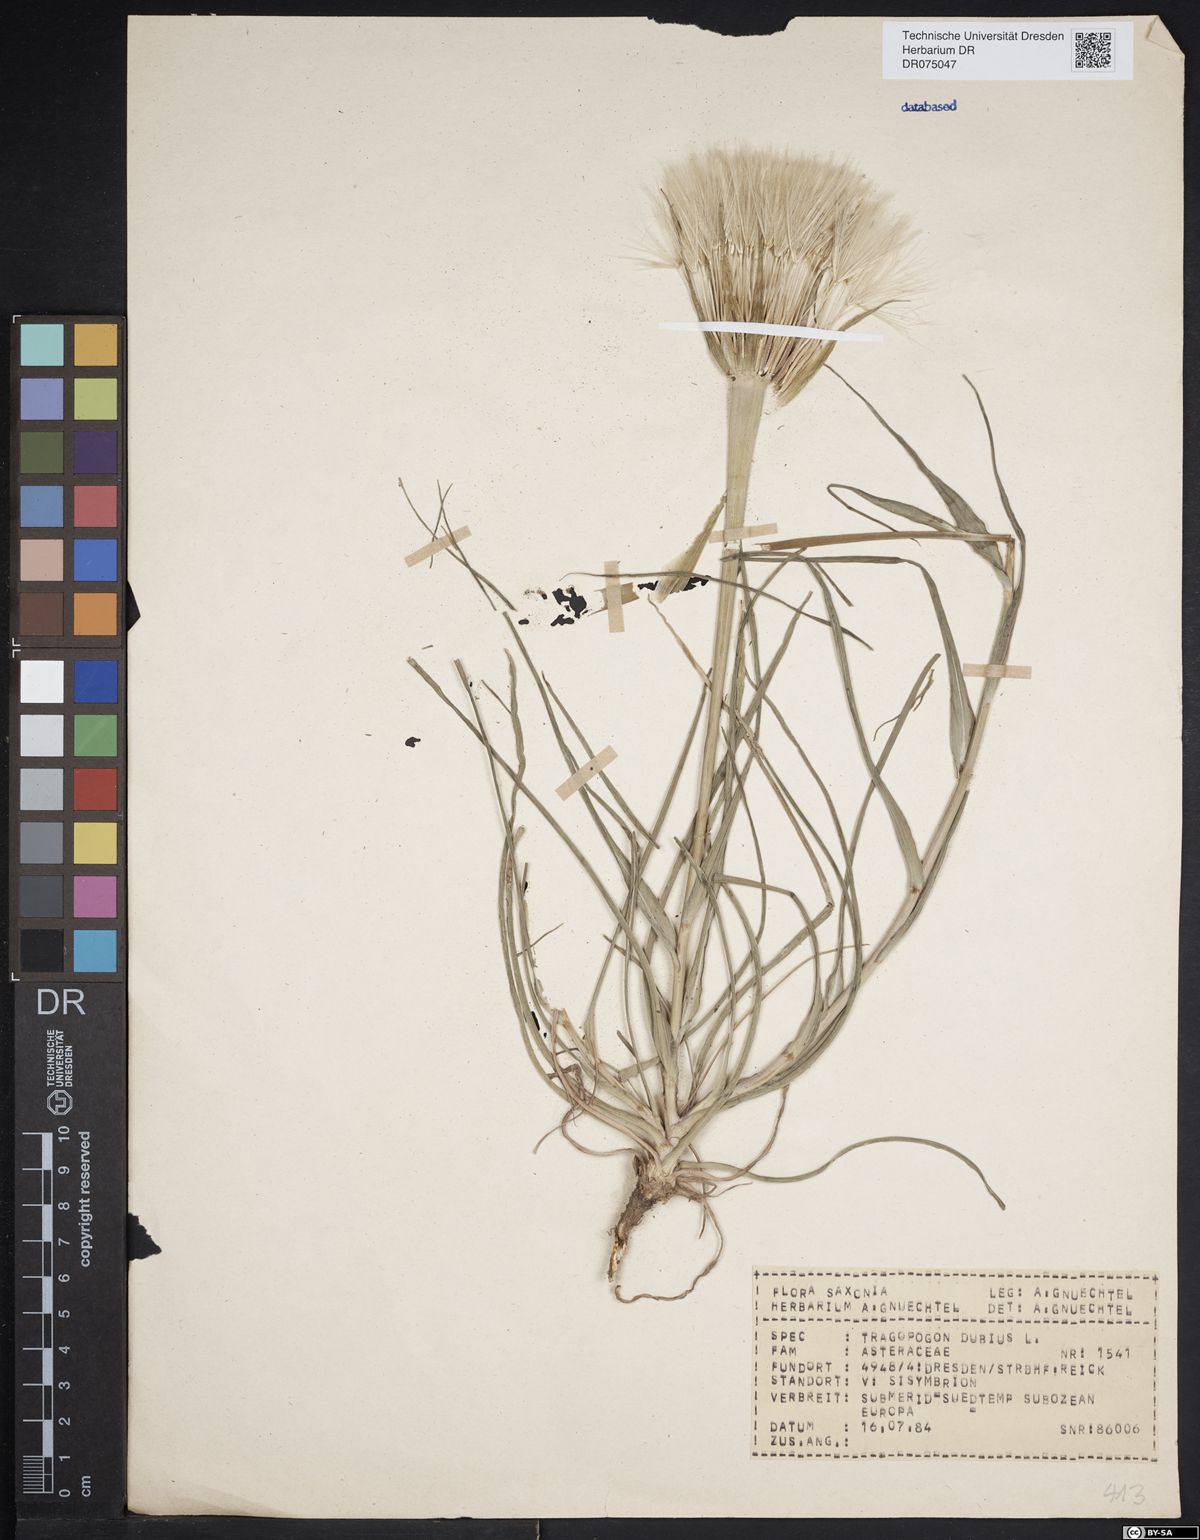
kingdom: Plantae
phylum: Tracheophyta
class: Magnoliopsida
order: Asterales
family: Asteraceae
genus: Tragopogon
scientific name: Tragopogon dubius
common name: Yellow salsify
